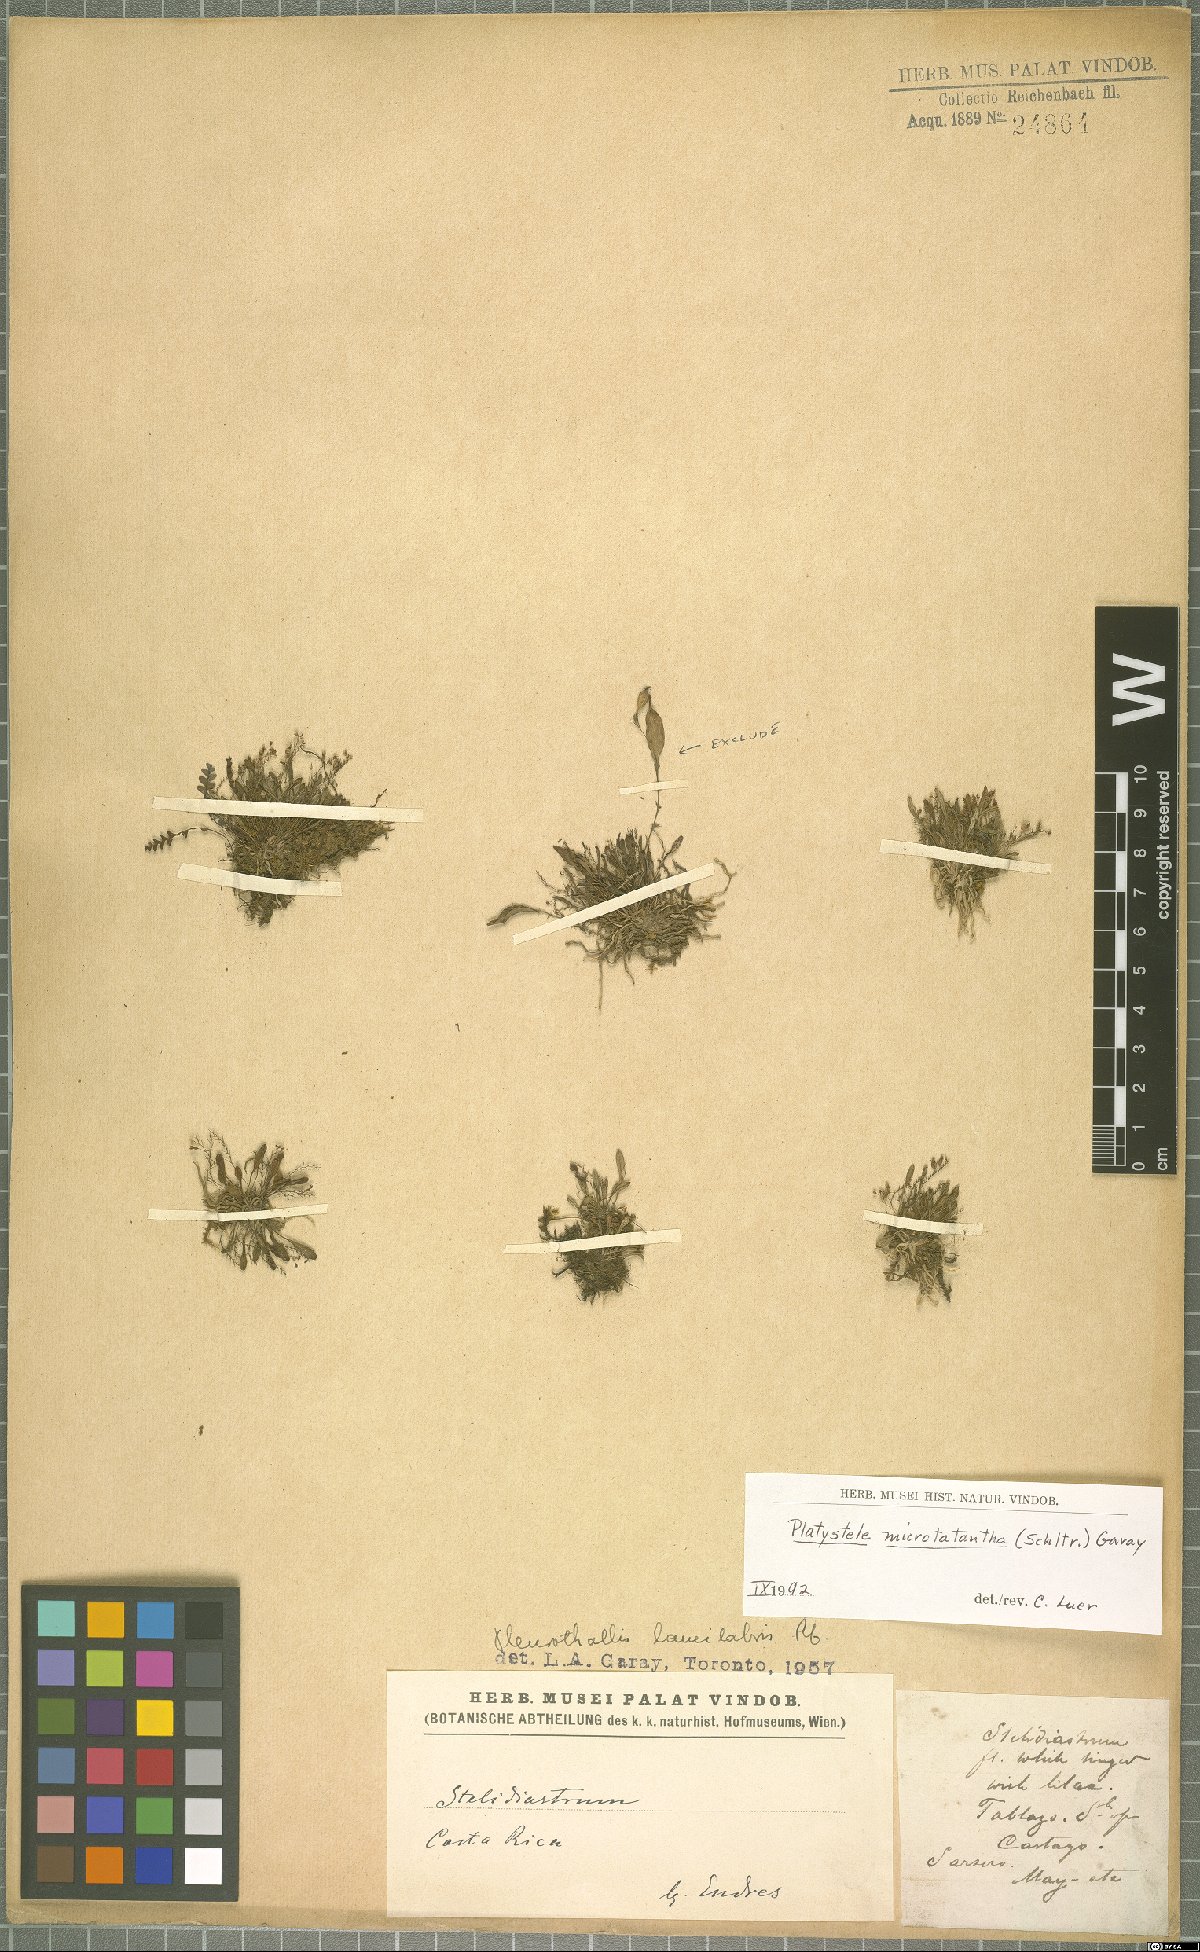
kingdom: Plantae
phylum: Tracheophyta
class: Liliopsida
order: Asparagales
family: Orchidaceae
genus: Platystele
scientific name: Platystele microtatantha
